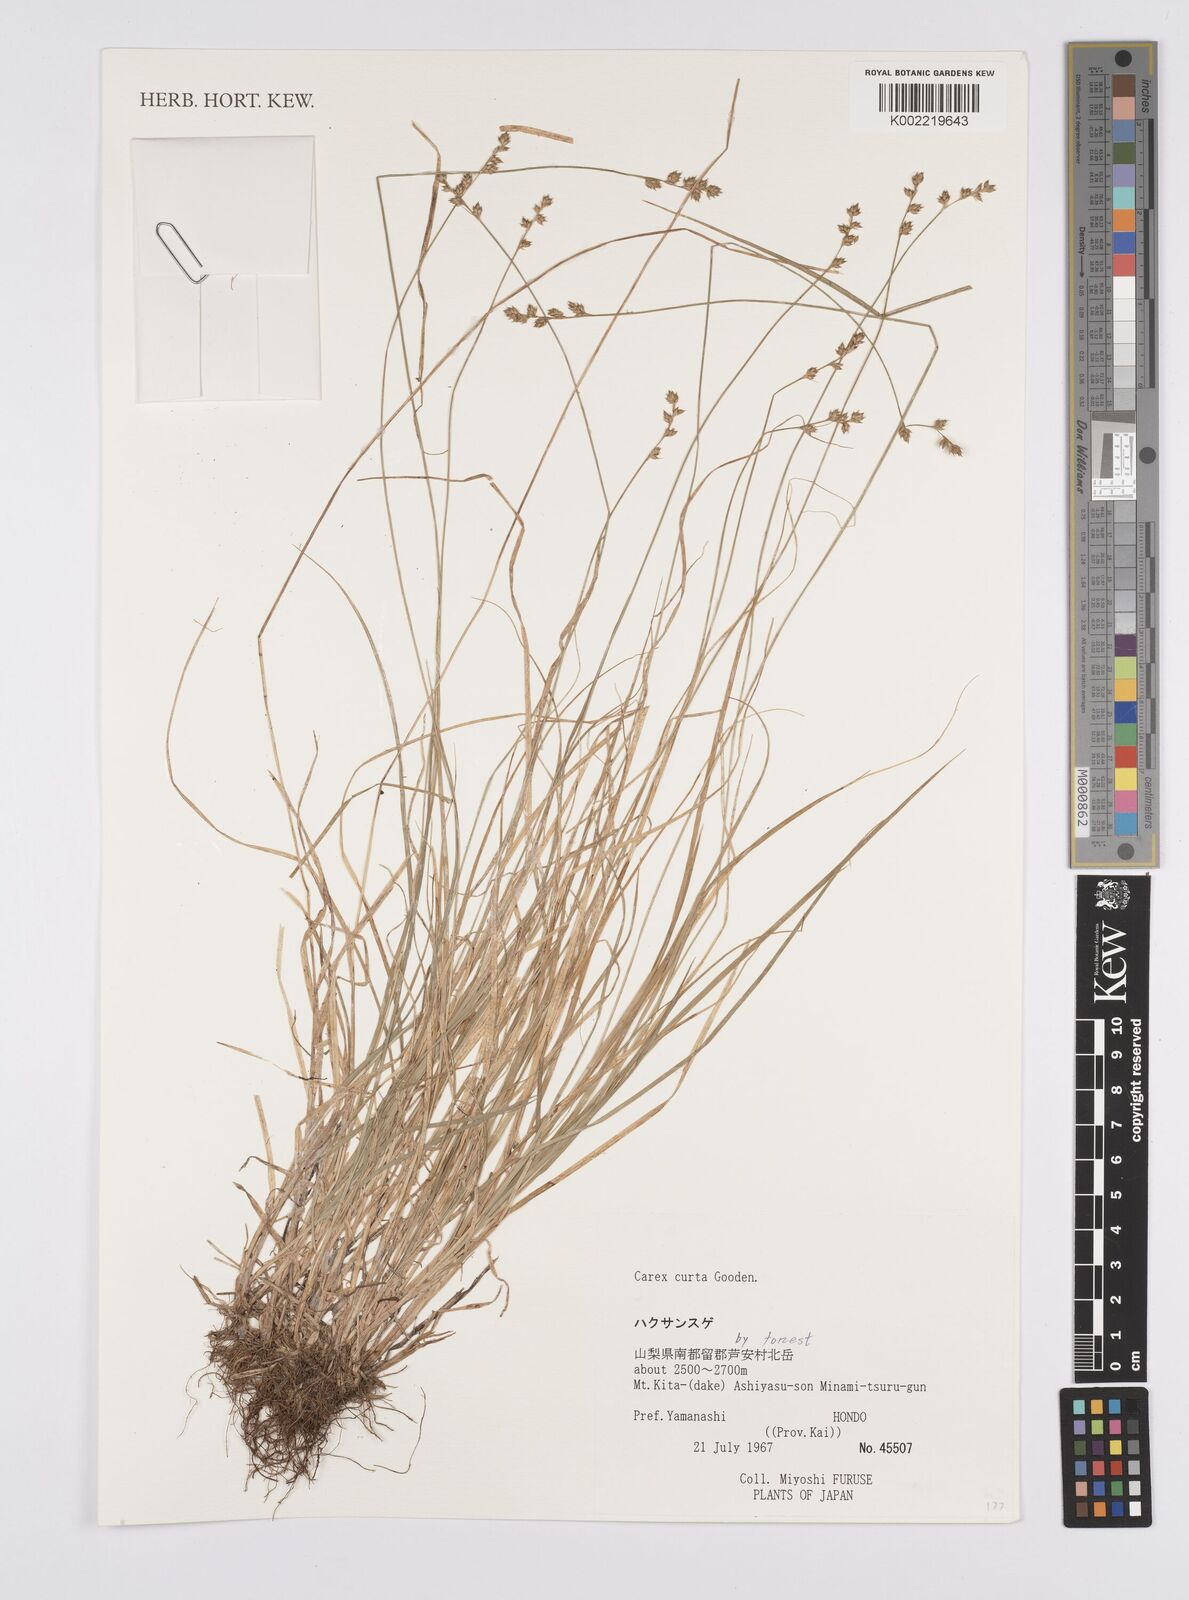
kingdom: Plantae
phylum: Tracheophyta
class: Liliopsida
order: Poales
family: Cyperaceae
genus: Carex
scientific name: Carex canescens
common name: White sedge
